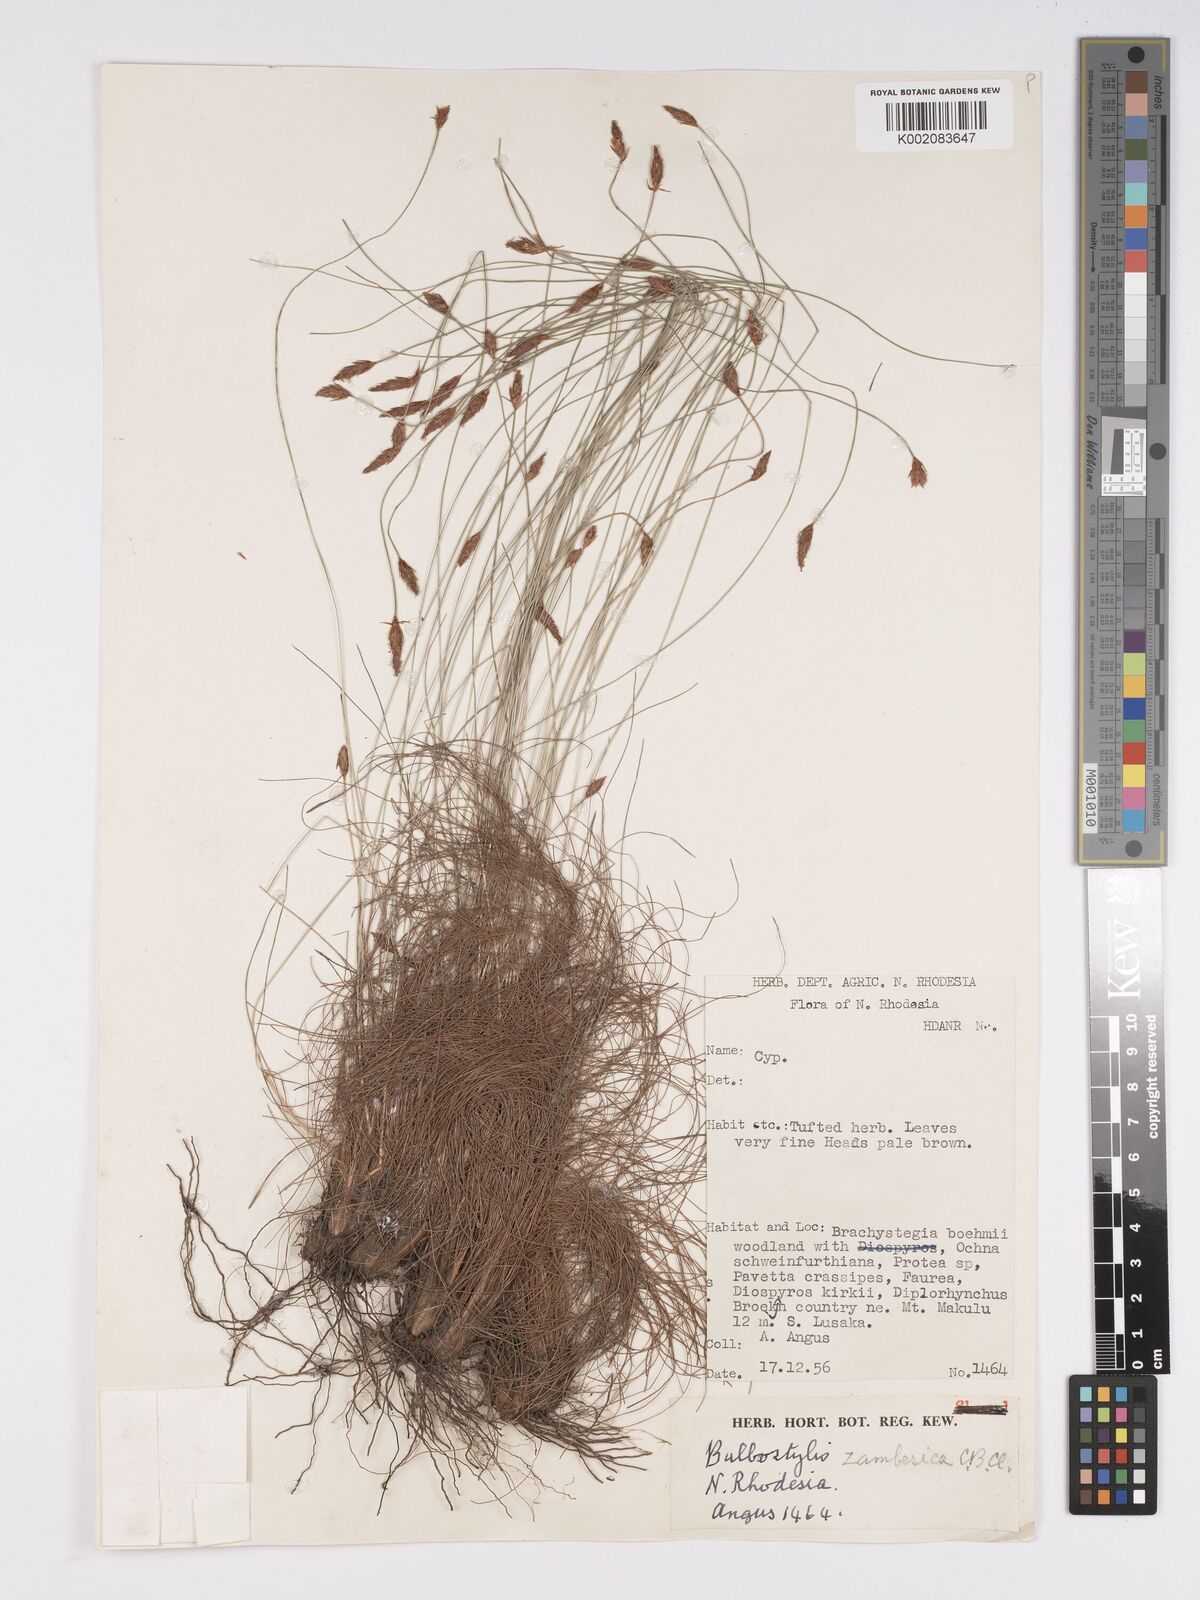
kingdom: Plantae
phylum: Tracheophyta
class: Liliopsida
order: Poales
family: Cyperaceae
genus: Bulbostylis
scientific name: Bulbostylis macra
